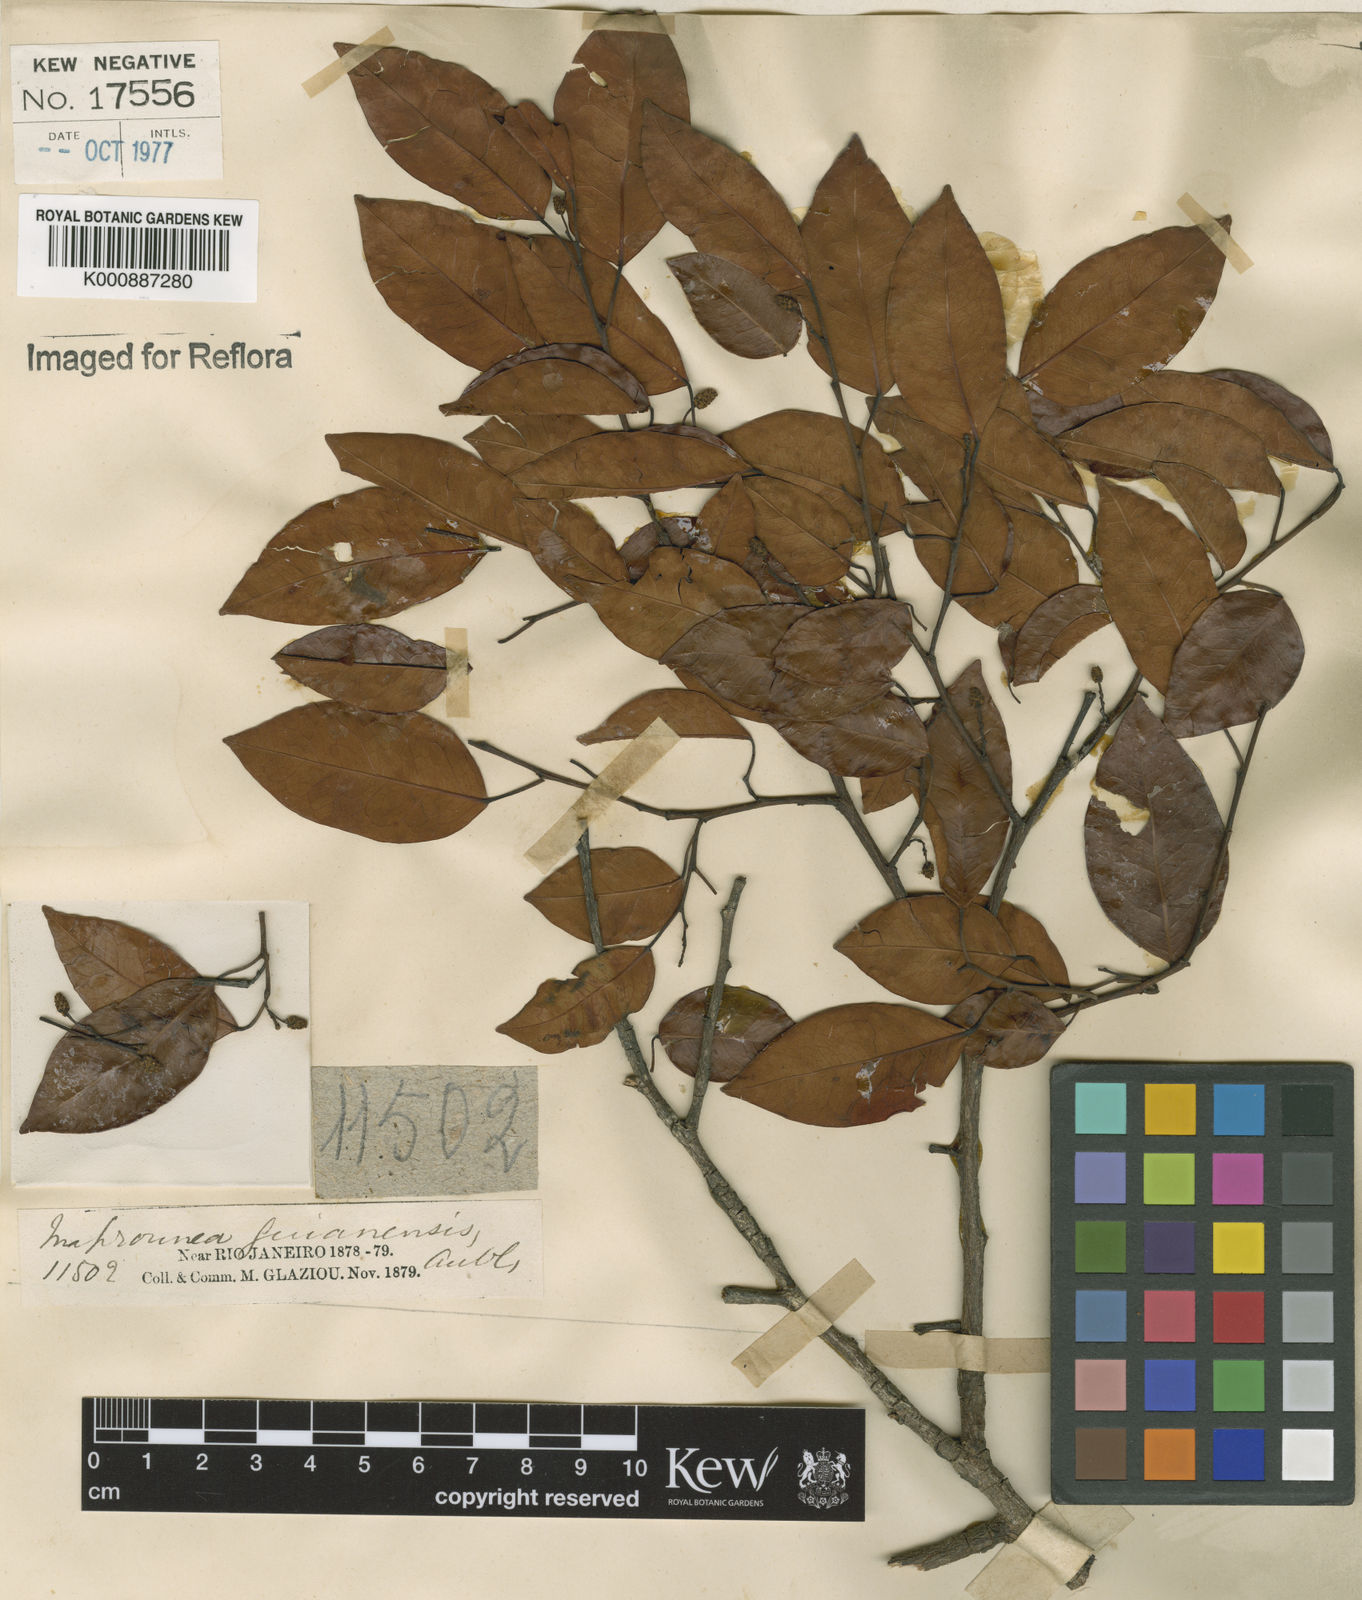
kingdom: Plantae
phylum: Tracheophyta
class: Magnoliopsida
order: Malpighiales
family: Euphorbiaceae
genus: Maprounea
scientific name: Maprounea guianensis
